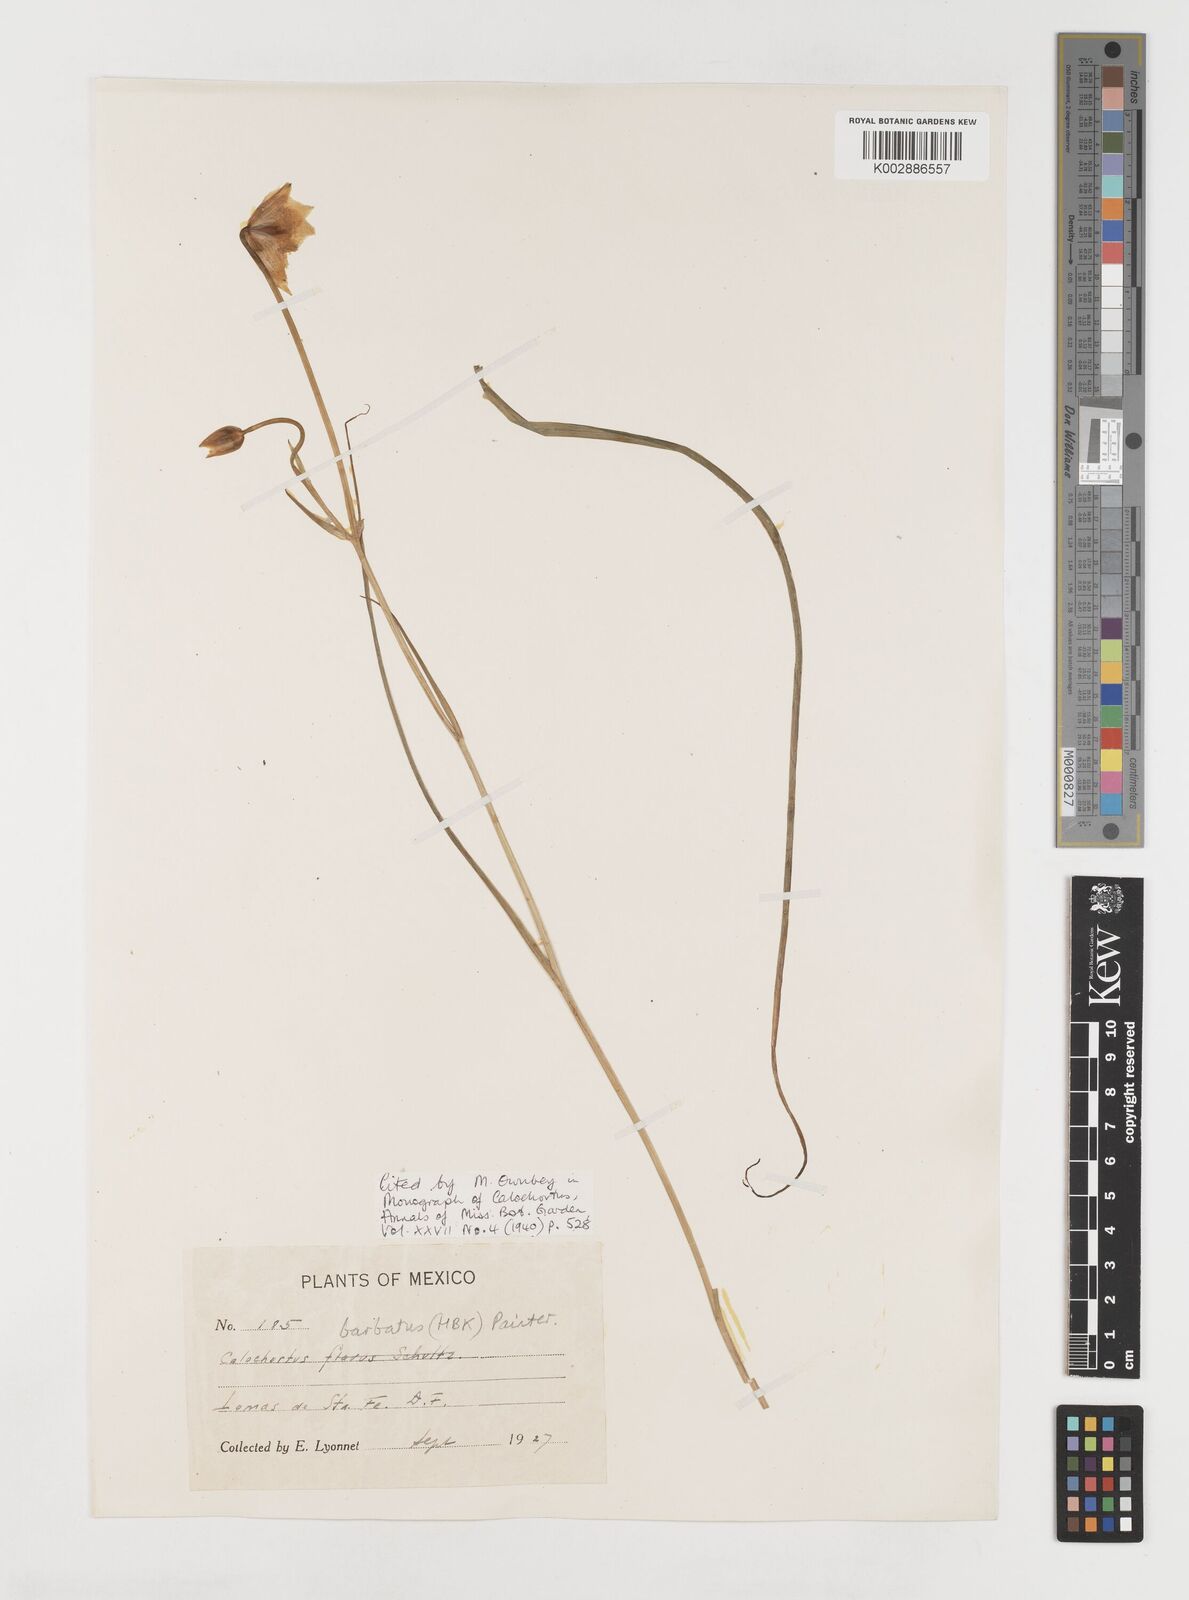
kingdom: Plantae
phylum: Tracheophyta
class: Liliopsida
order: Liliales
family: Liliaceae
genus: Calochortus
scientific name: Calochortus barbatus
